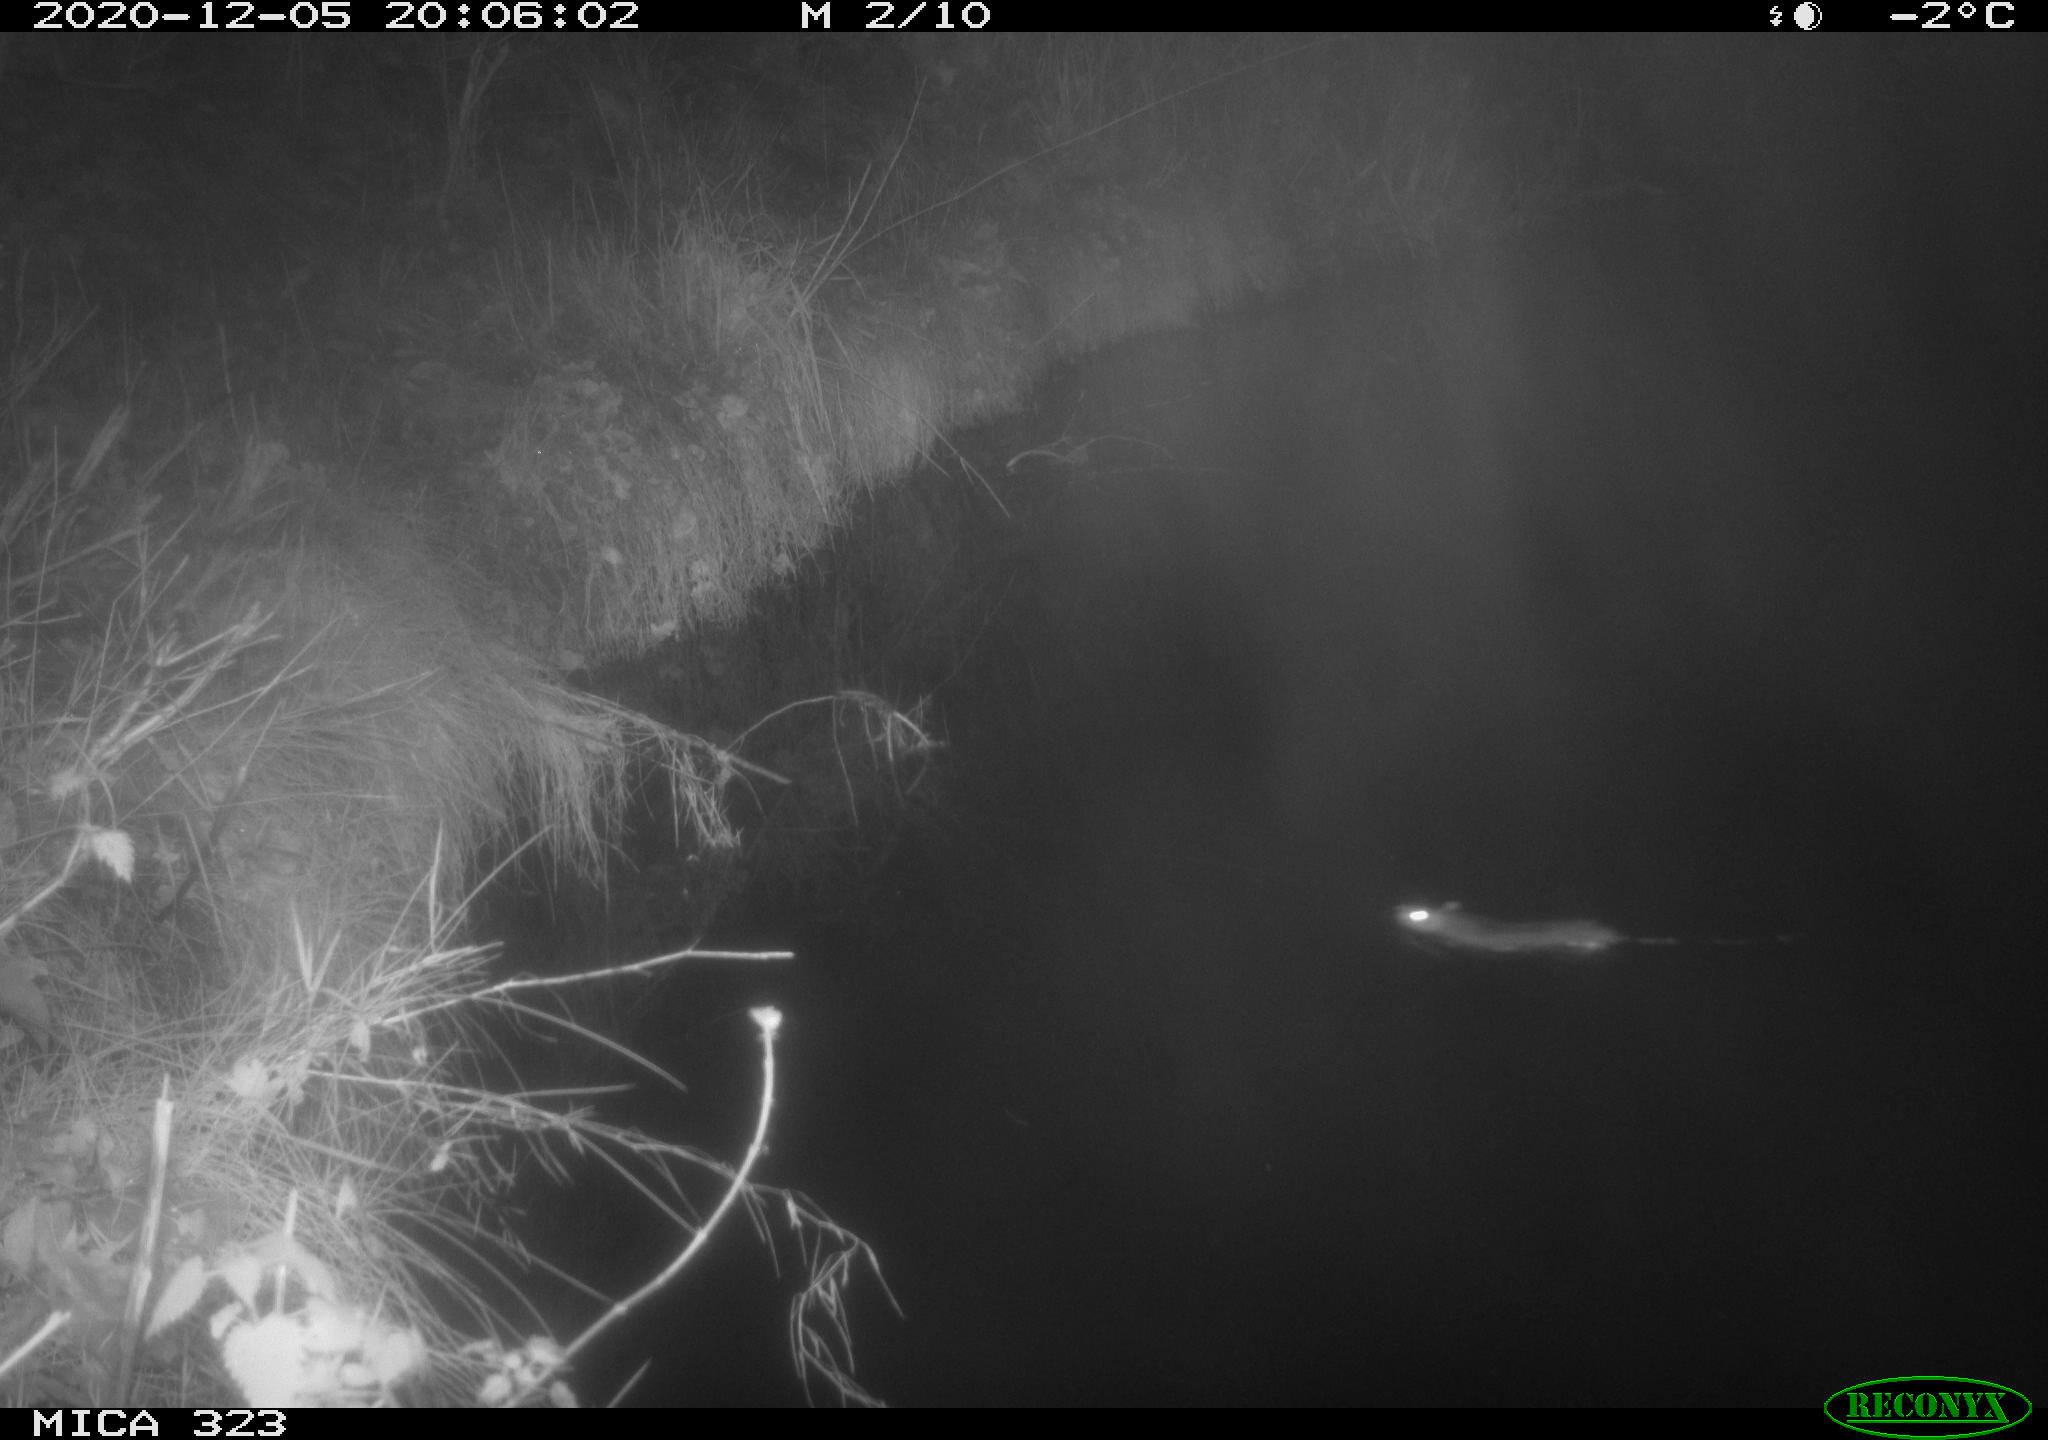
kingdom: Animalia
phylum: Chordata
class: Mammalia
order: Rodentia
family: Muridae
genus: Rattus
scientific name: Rattus norvegicus
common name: Brown rat
